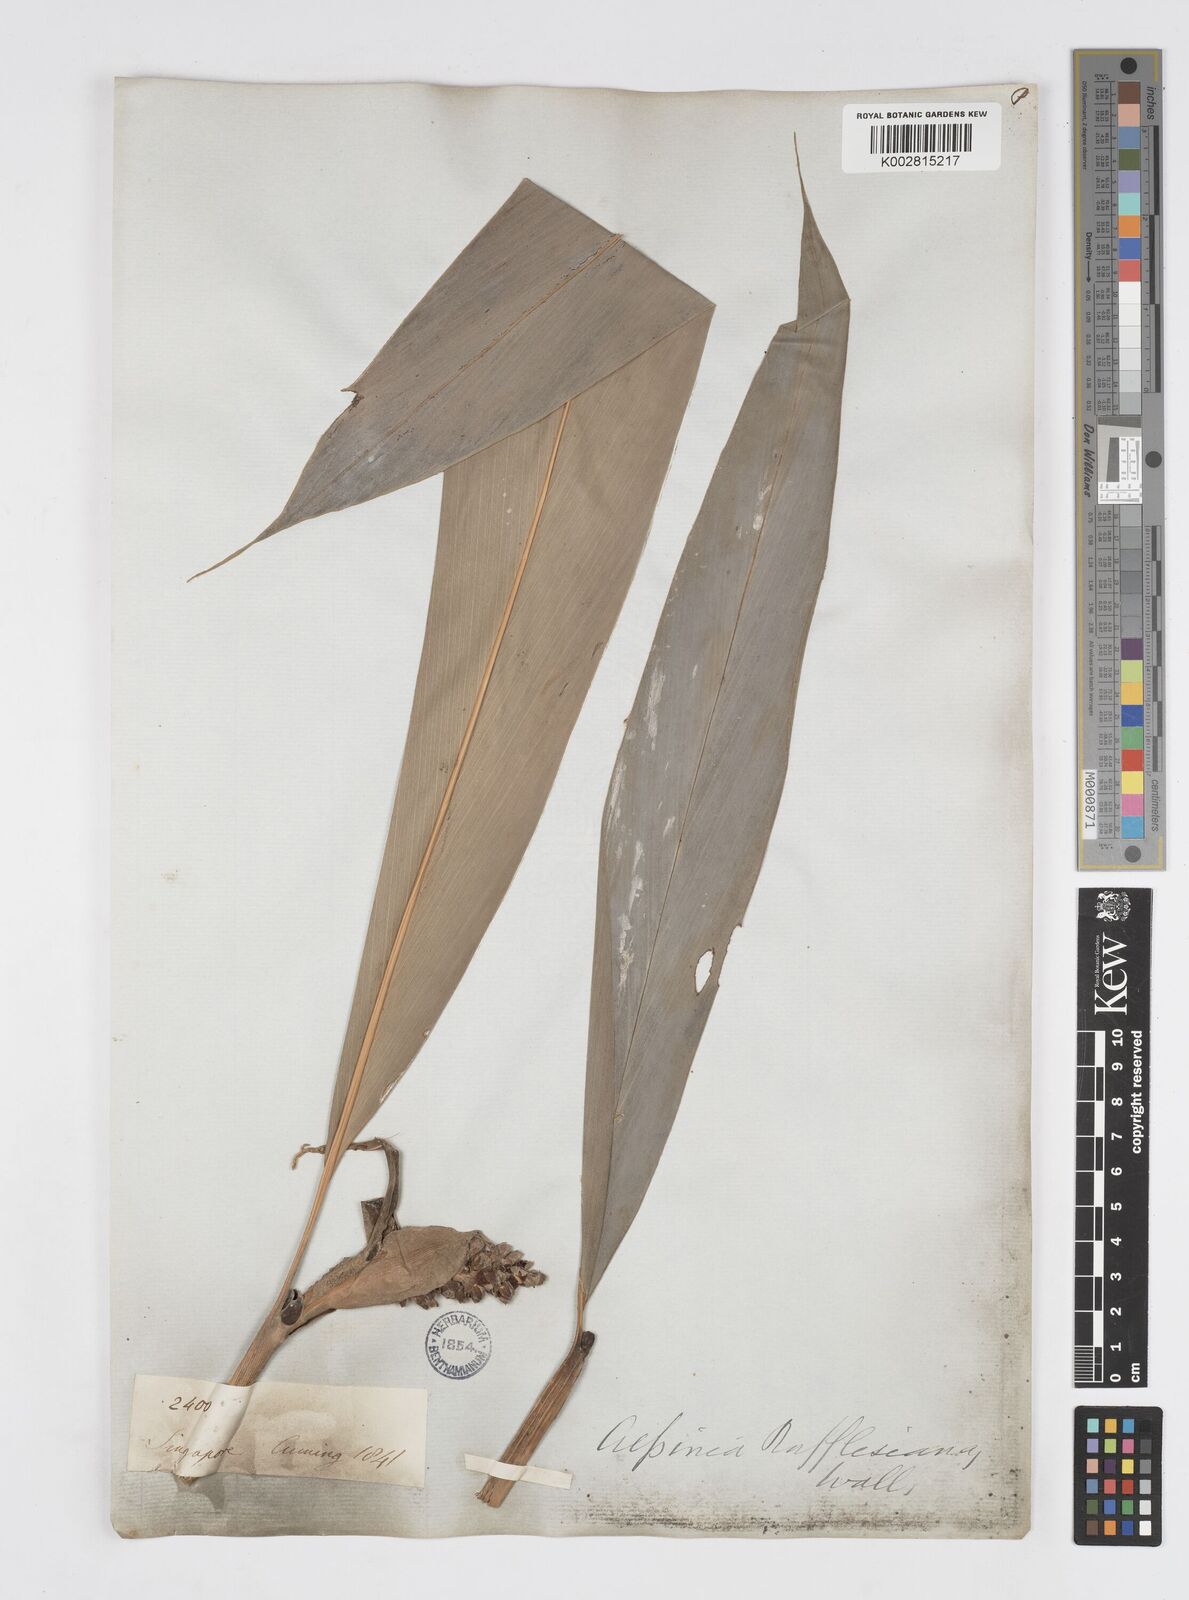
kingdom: Plantae
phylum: Tracheophyta
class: Liliopsida
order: Zingiberales
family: Zingiberaceae
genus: Alpinia
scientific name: Alpinia rafflesiana
